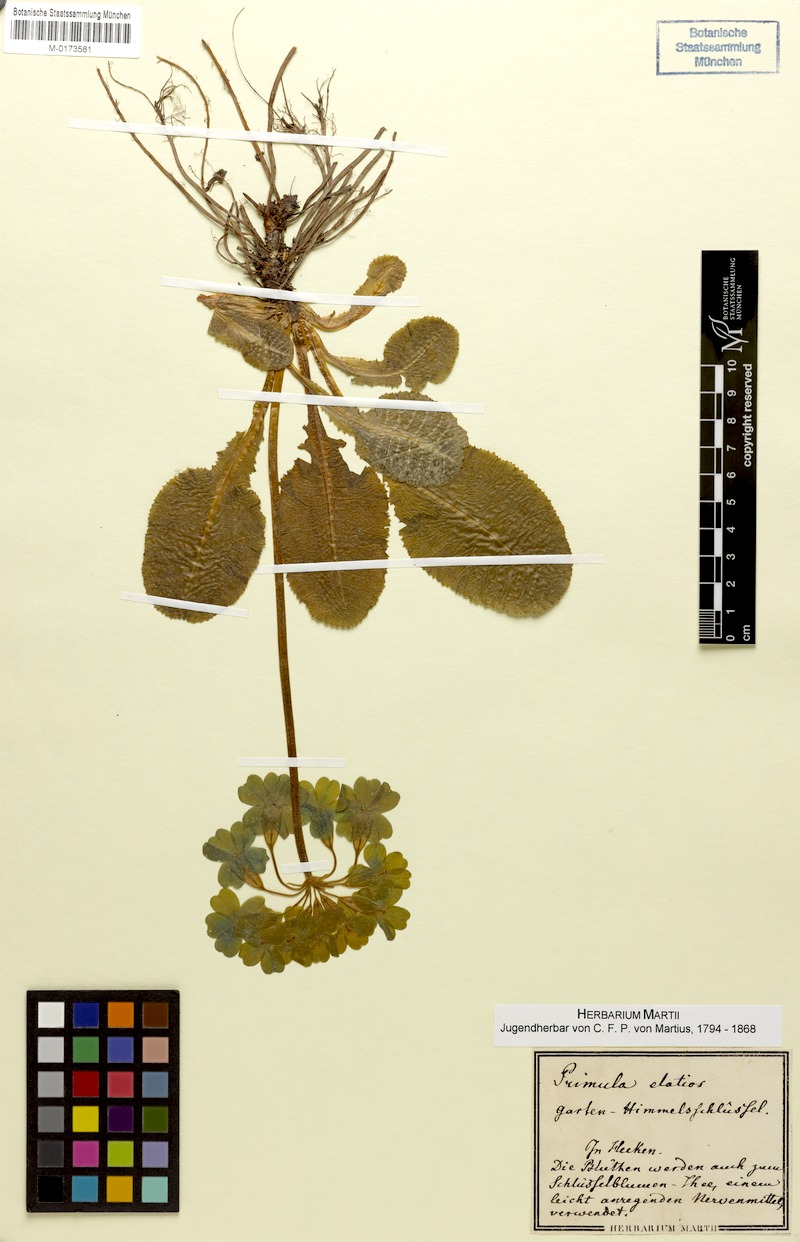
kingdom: Plantae
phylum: Tracheophyta
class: Magnoliopsida
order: Ericales
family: Primulaceae
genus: Primula
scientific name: Primula elatior
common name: Oxlip
